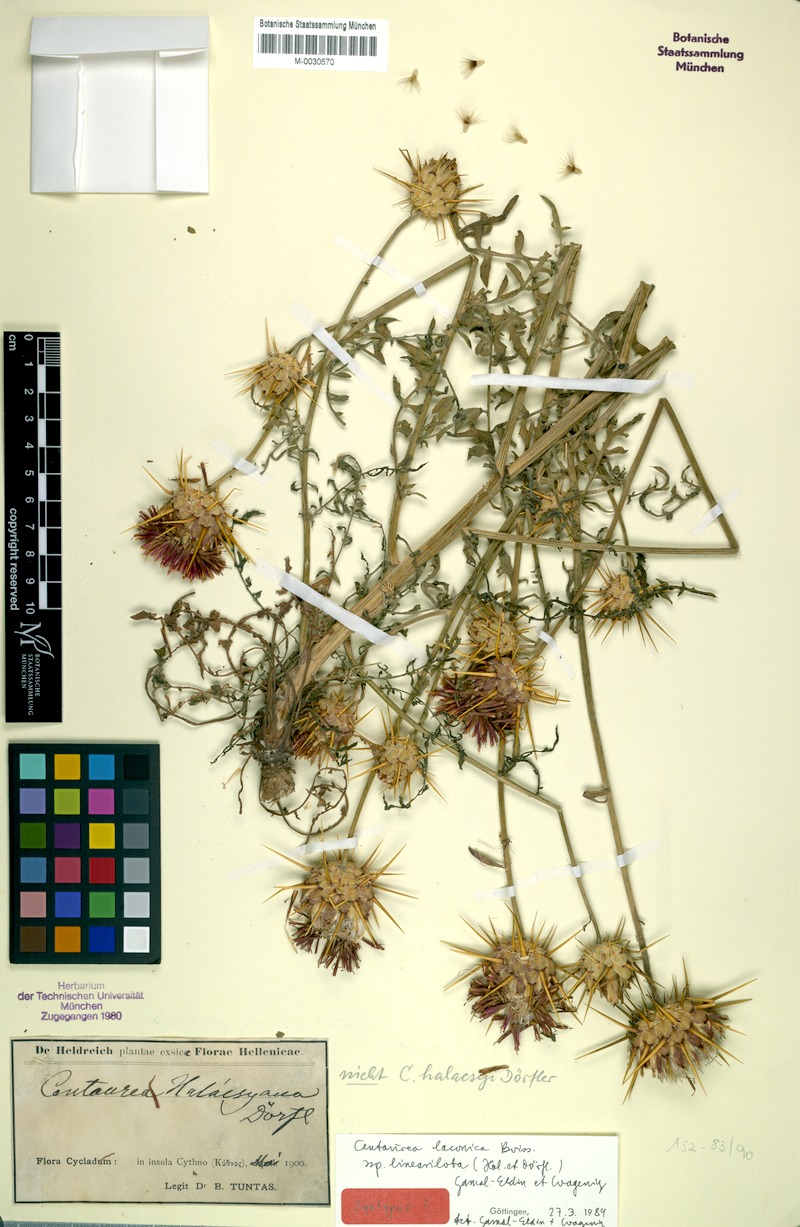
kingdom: Plantae
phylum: Tracheophyta
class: Magnoliopsida
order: Asterales
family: Asteraceae
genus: Centaurea
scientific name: Centaurea laconica
